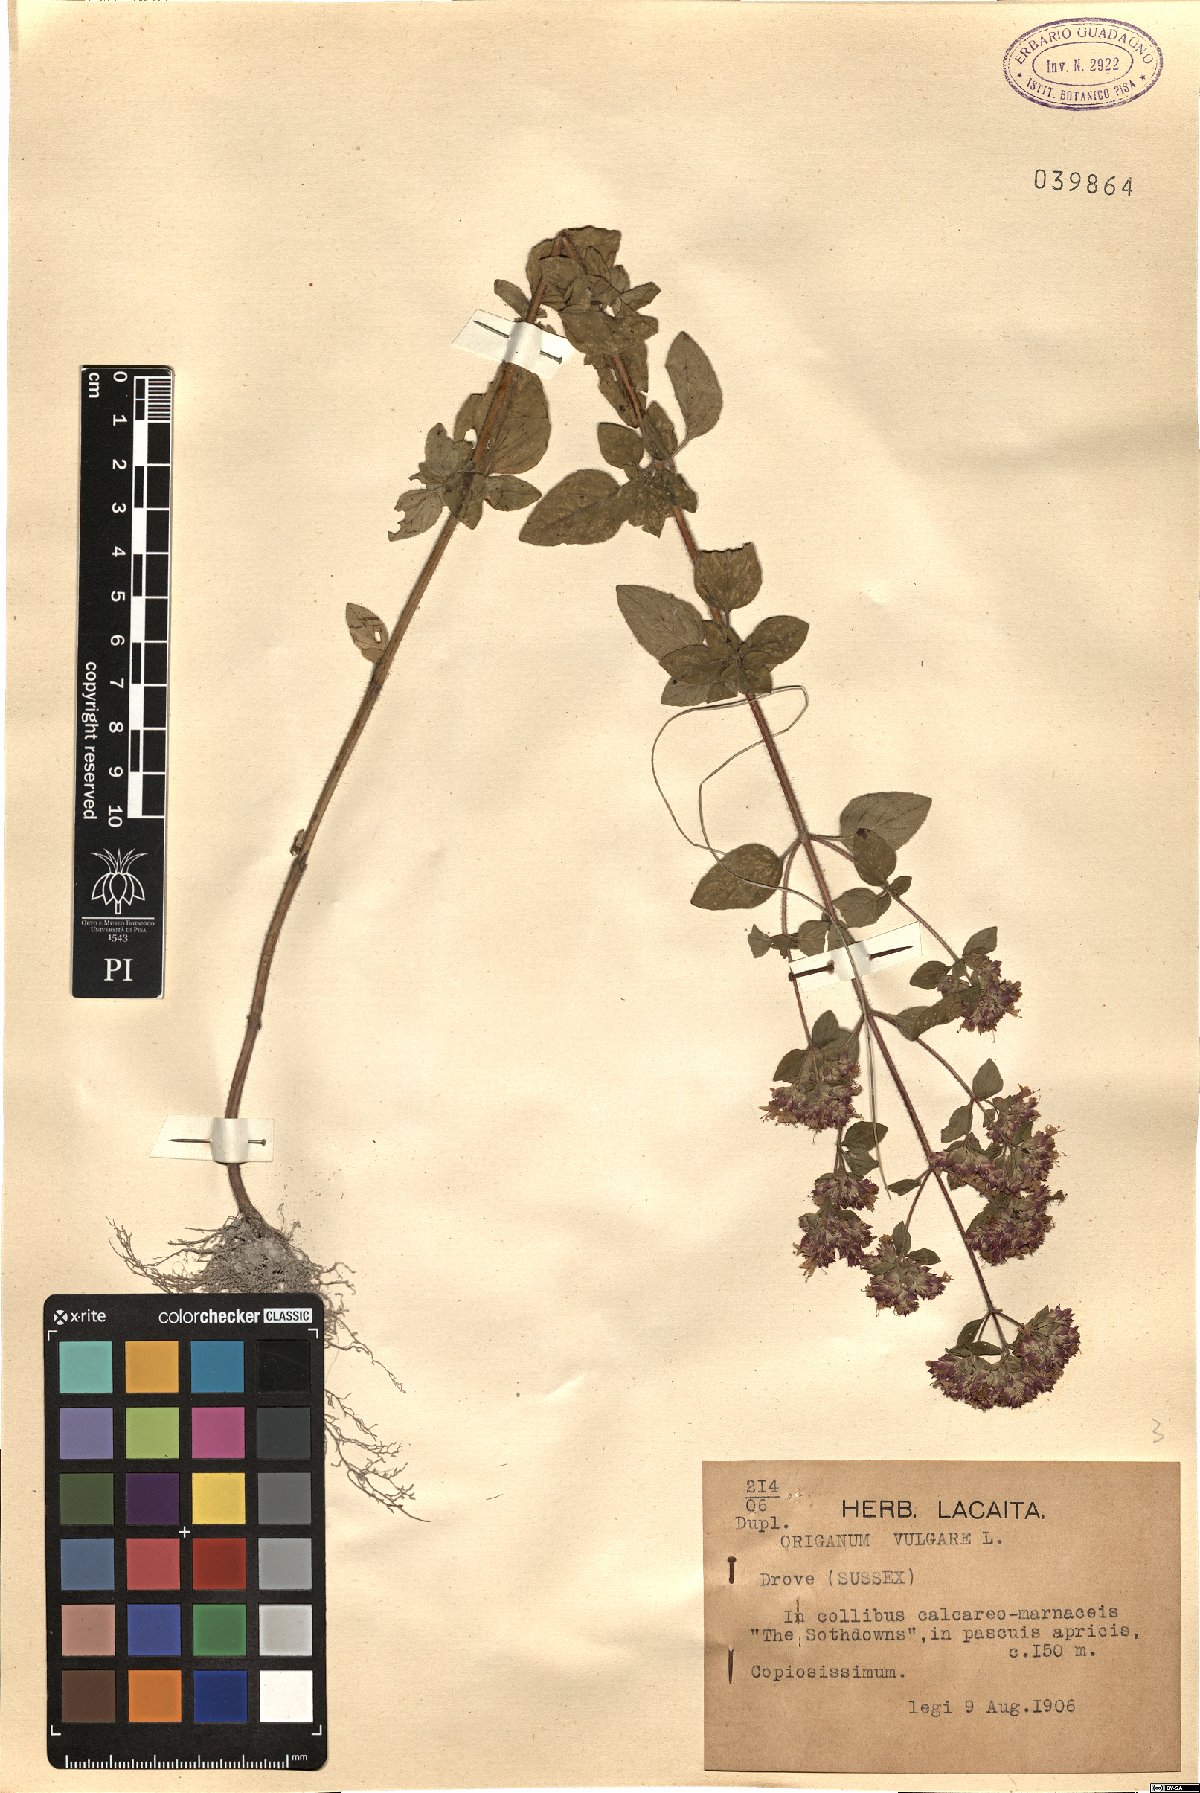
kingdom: Plantae
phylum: Tracheophyta
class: Magnoliopsida
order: Lamiales
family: Lamiaceae
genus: Origanum
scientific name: Origanum vulgare
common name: Wild marjoram
